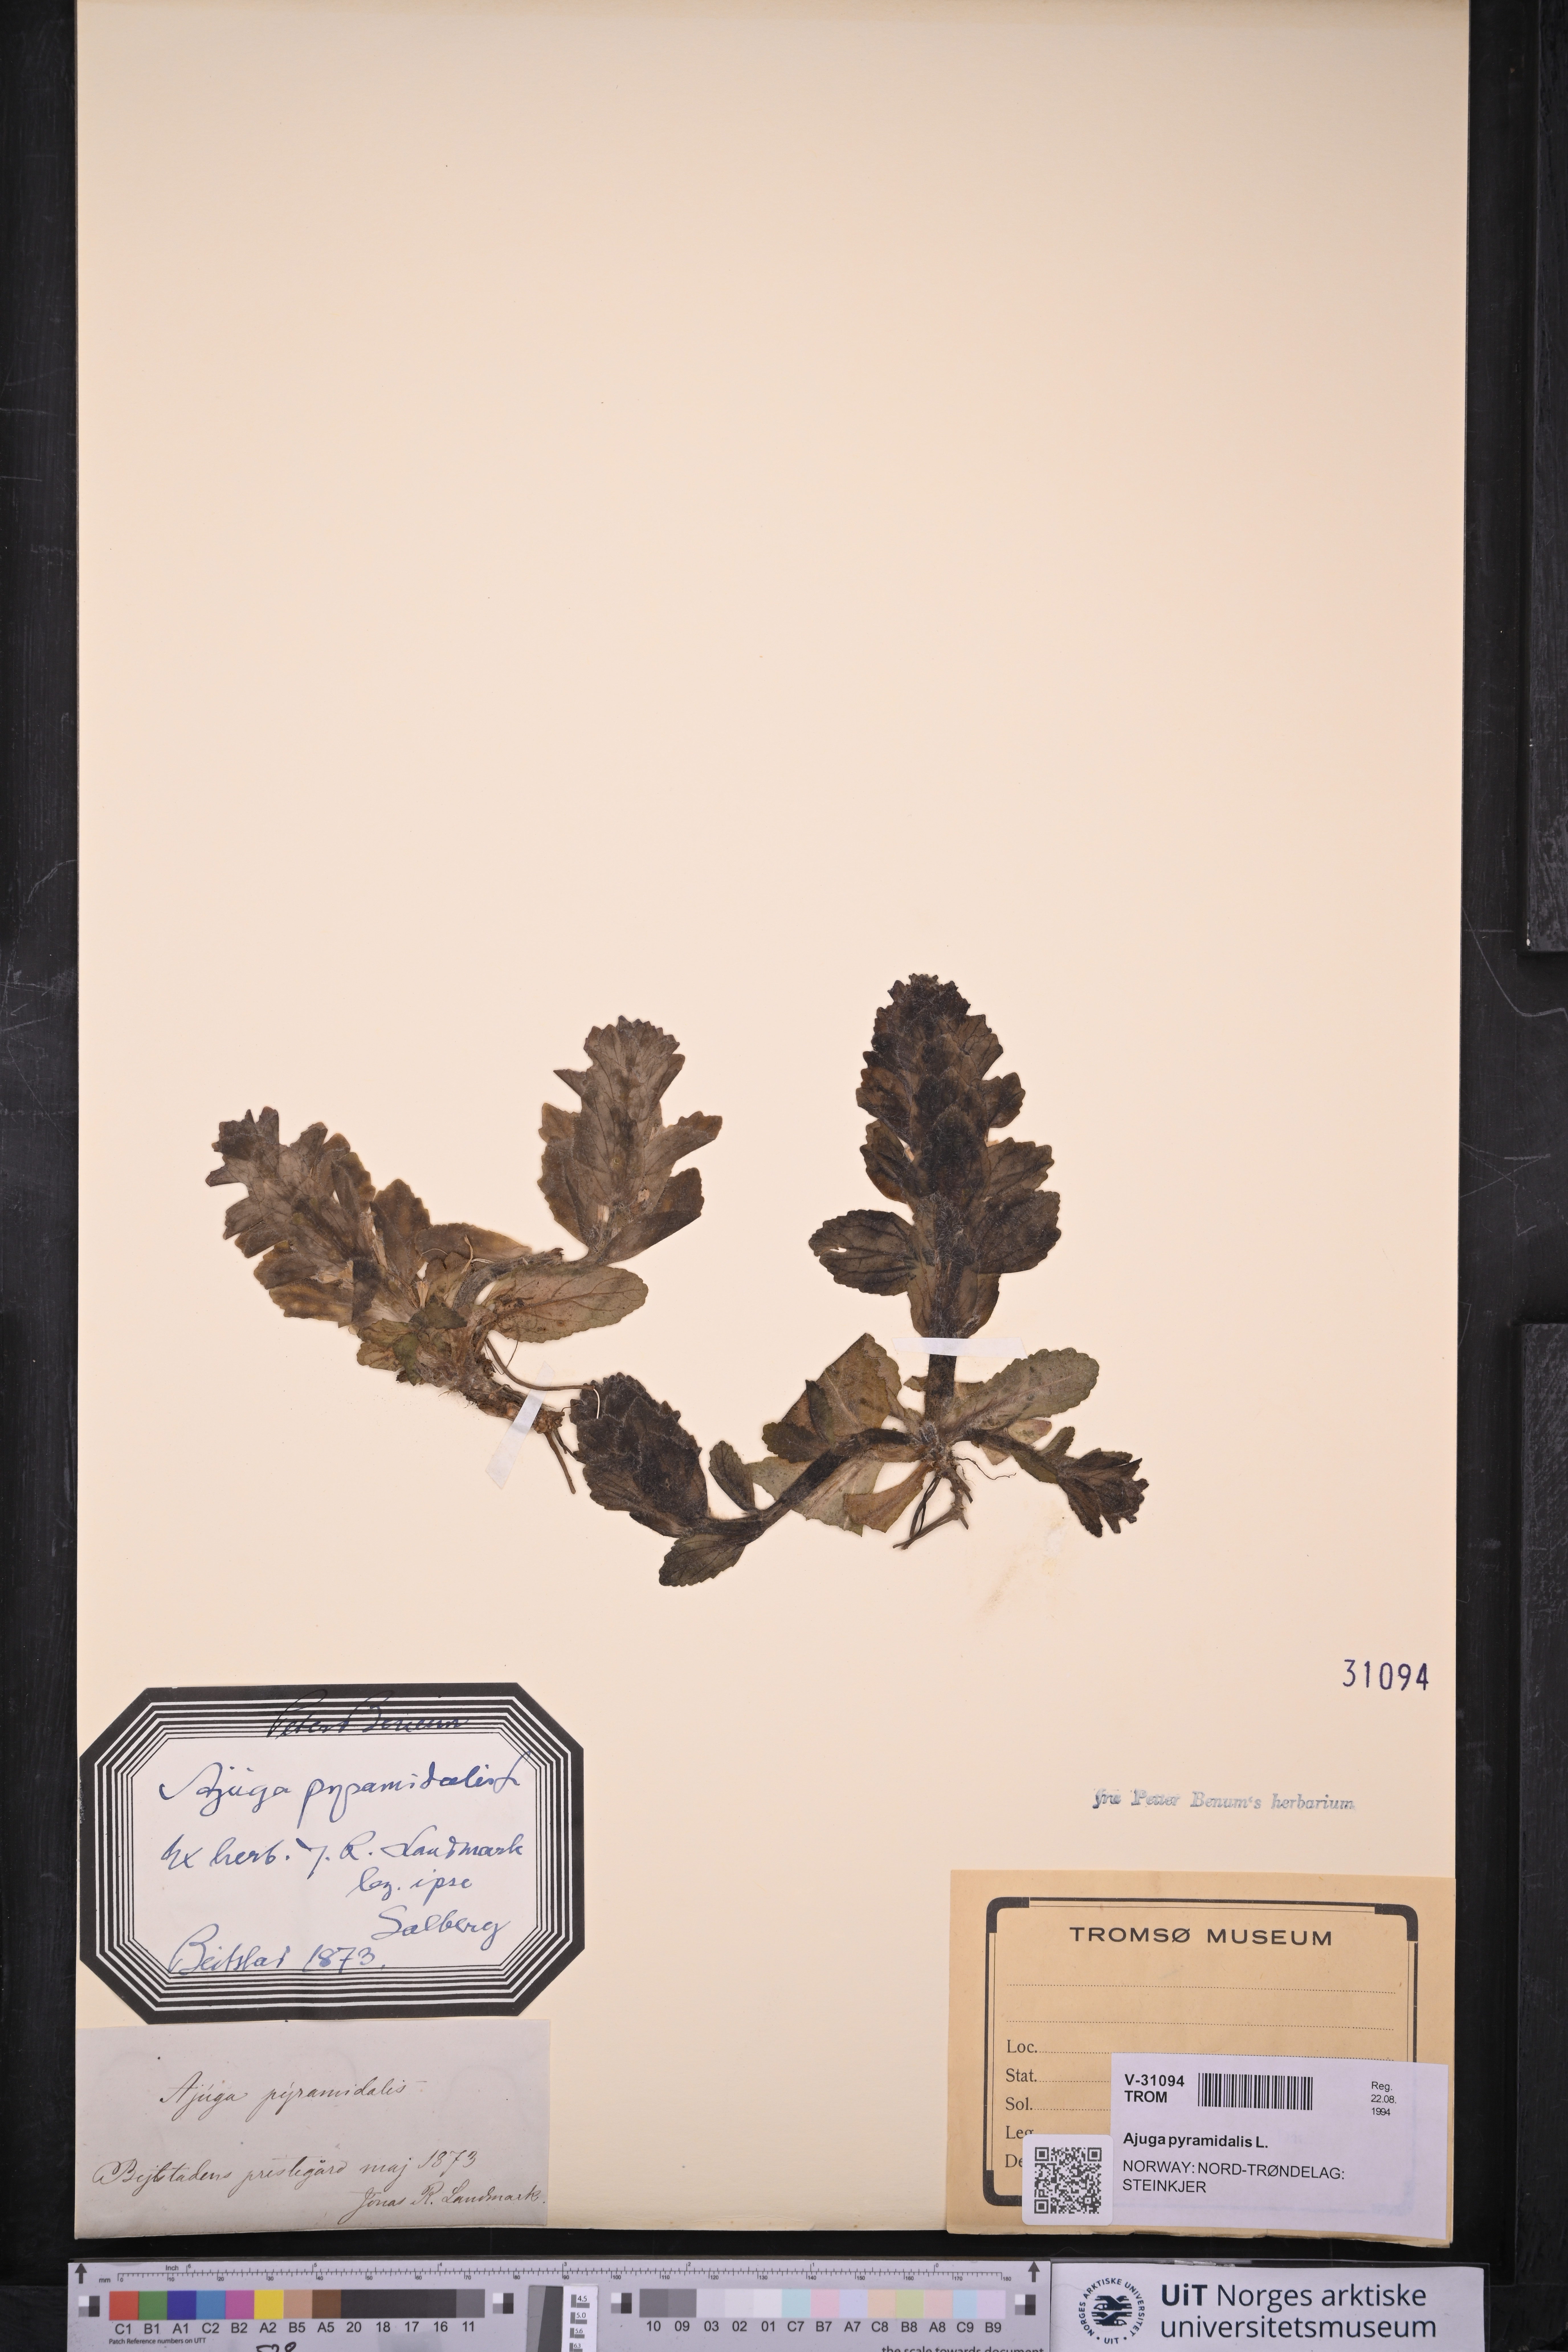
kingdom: Plantae
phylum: Tracheophyta
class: Magnoliopsida
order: Lamiales
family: Lamiaceae
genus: Ajuga
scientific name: Ajuga pyramidalis
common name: Pyramid bugle
